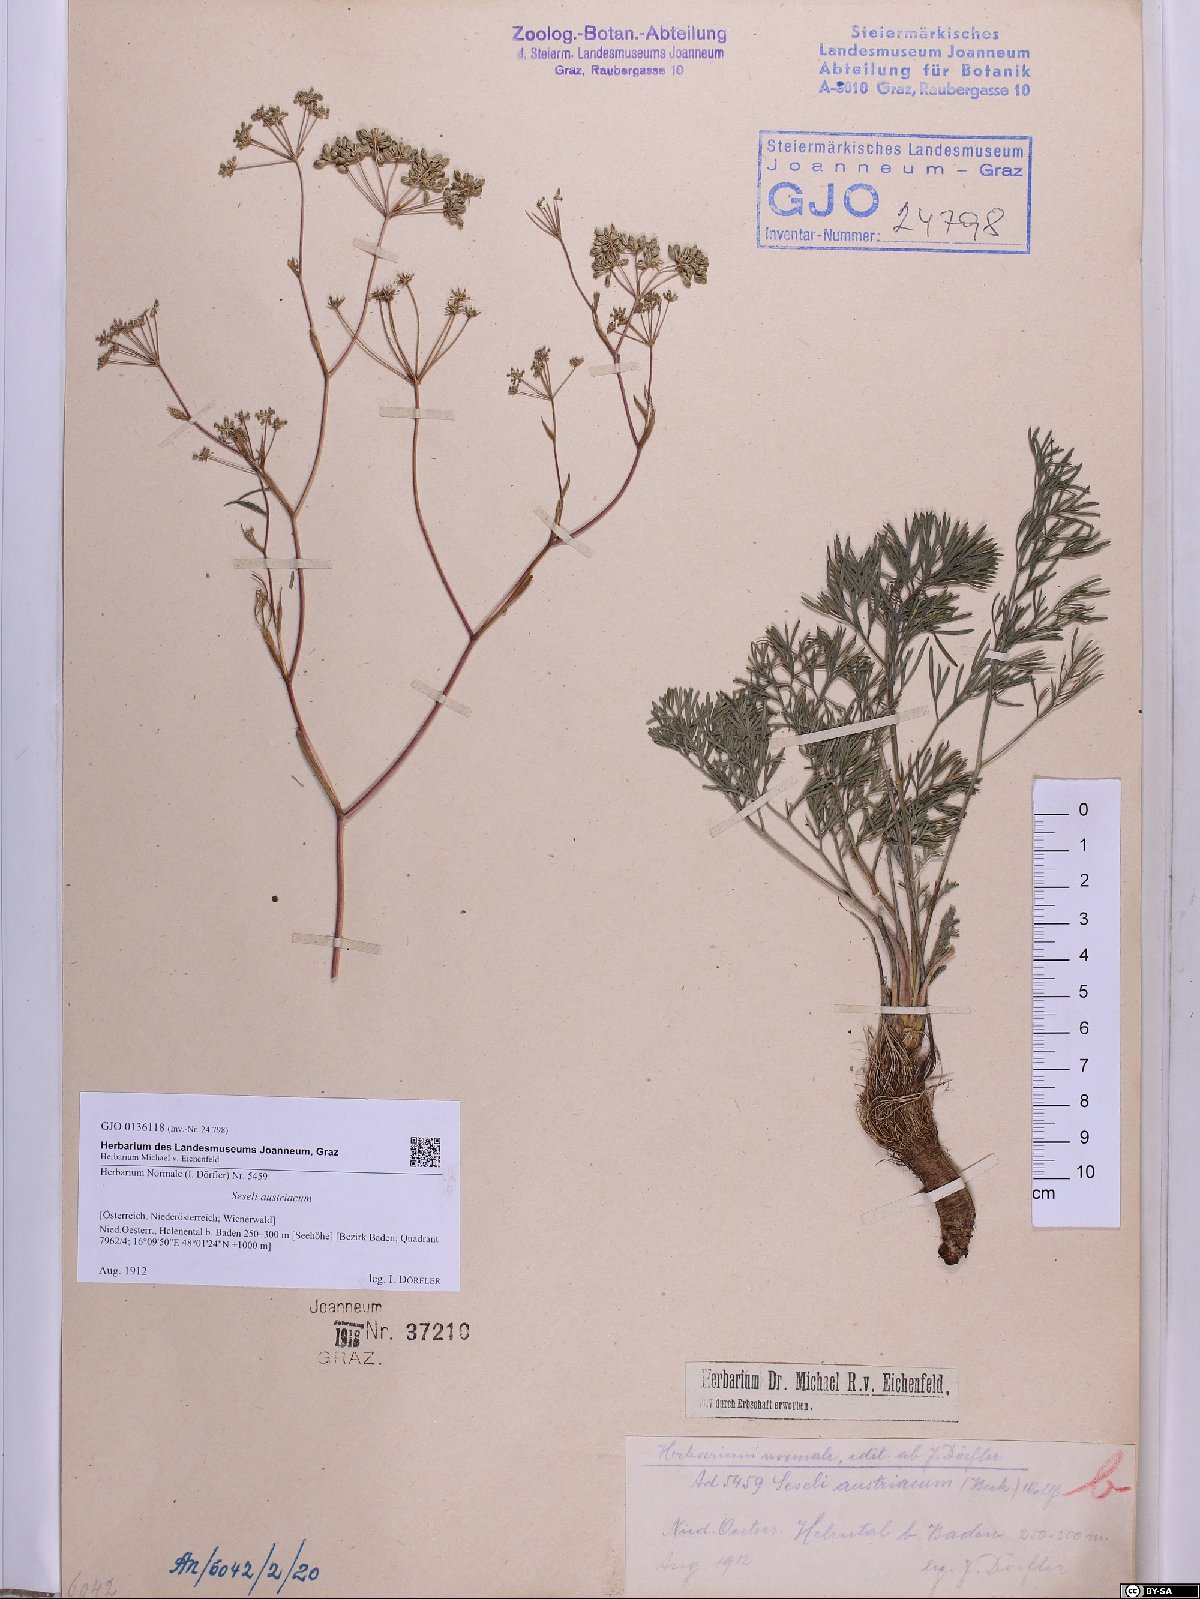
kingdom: Plantae
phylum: Tracheophyta
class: Magnoliopsida
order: Apiales
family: Apiaceae
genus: Seseli
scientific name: Seseli austriacum
